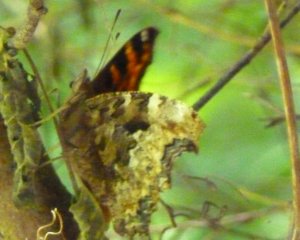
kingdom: Animalia
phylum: Arthropoda
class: Insecta
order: Lepidoptera
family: Nymphalidae
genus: Polygonia
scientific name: Polygonia vaualbum
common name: Compton Tortoiseshell
